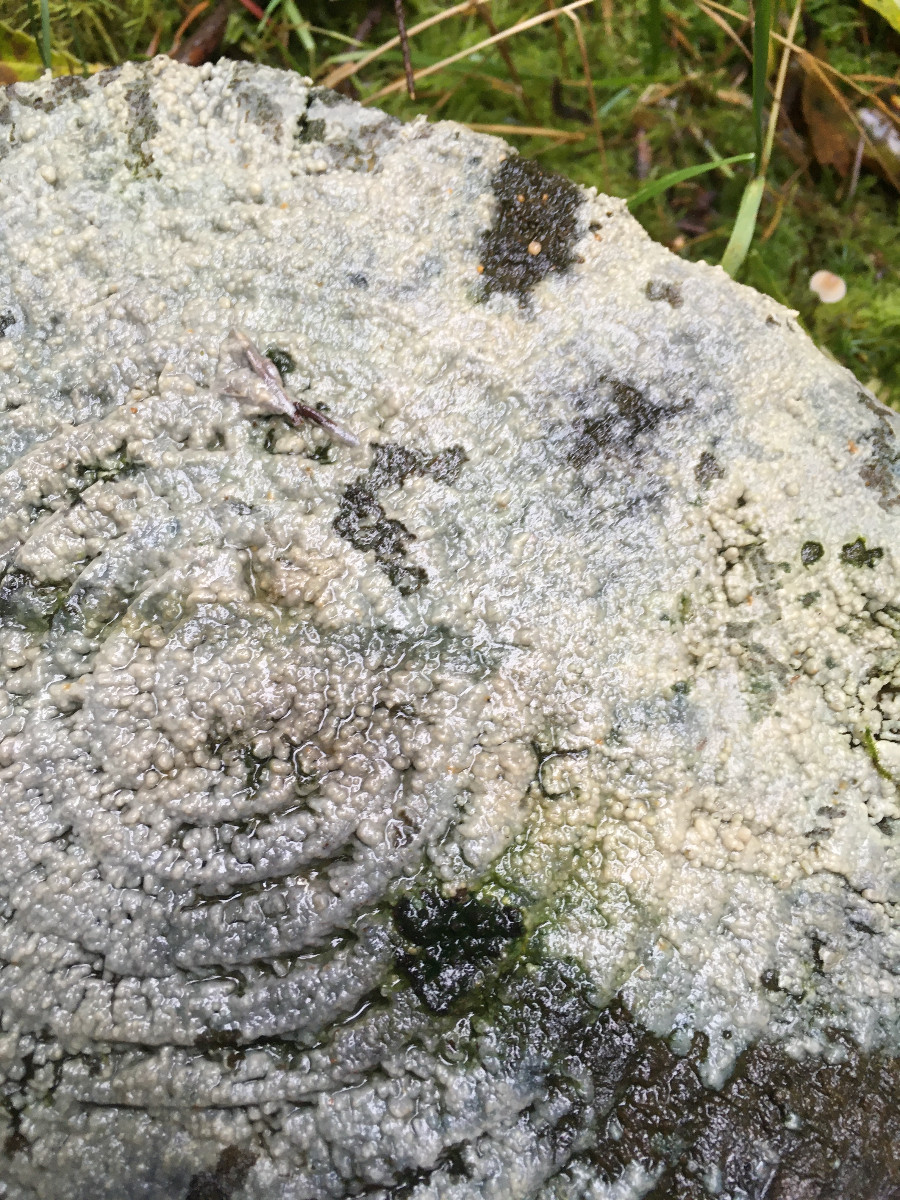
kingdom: Fungi
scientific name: Fungi
